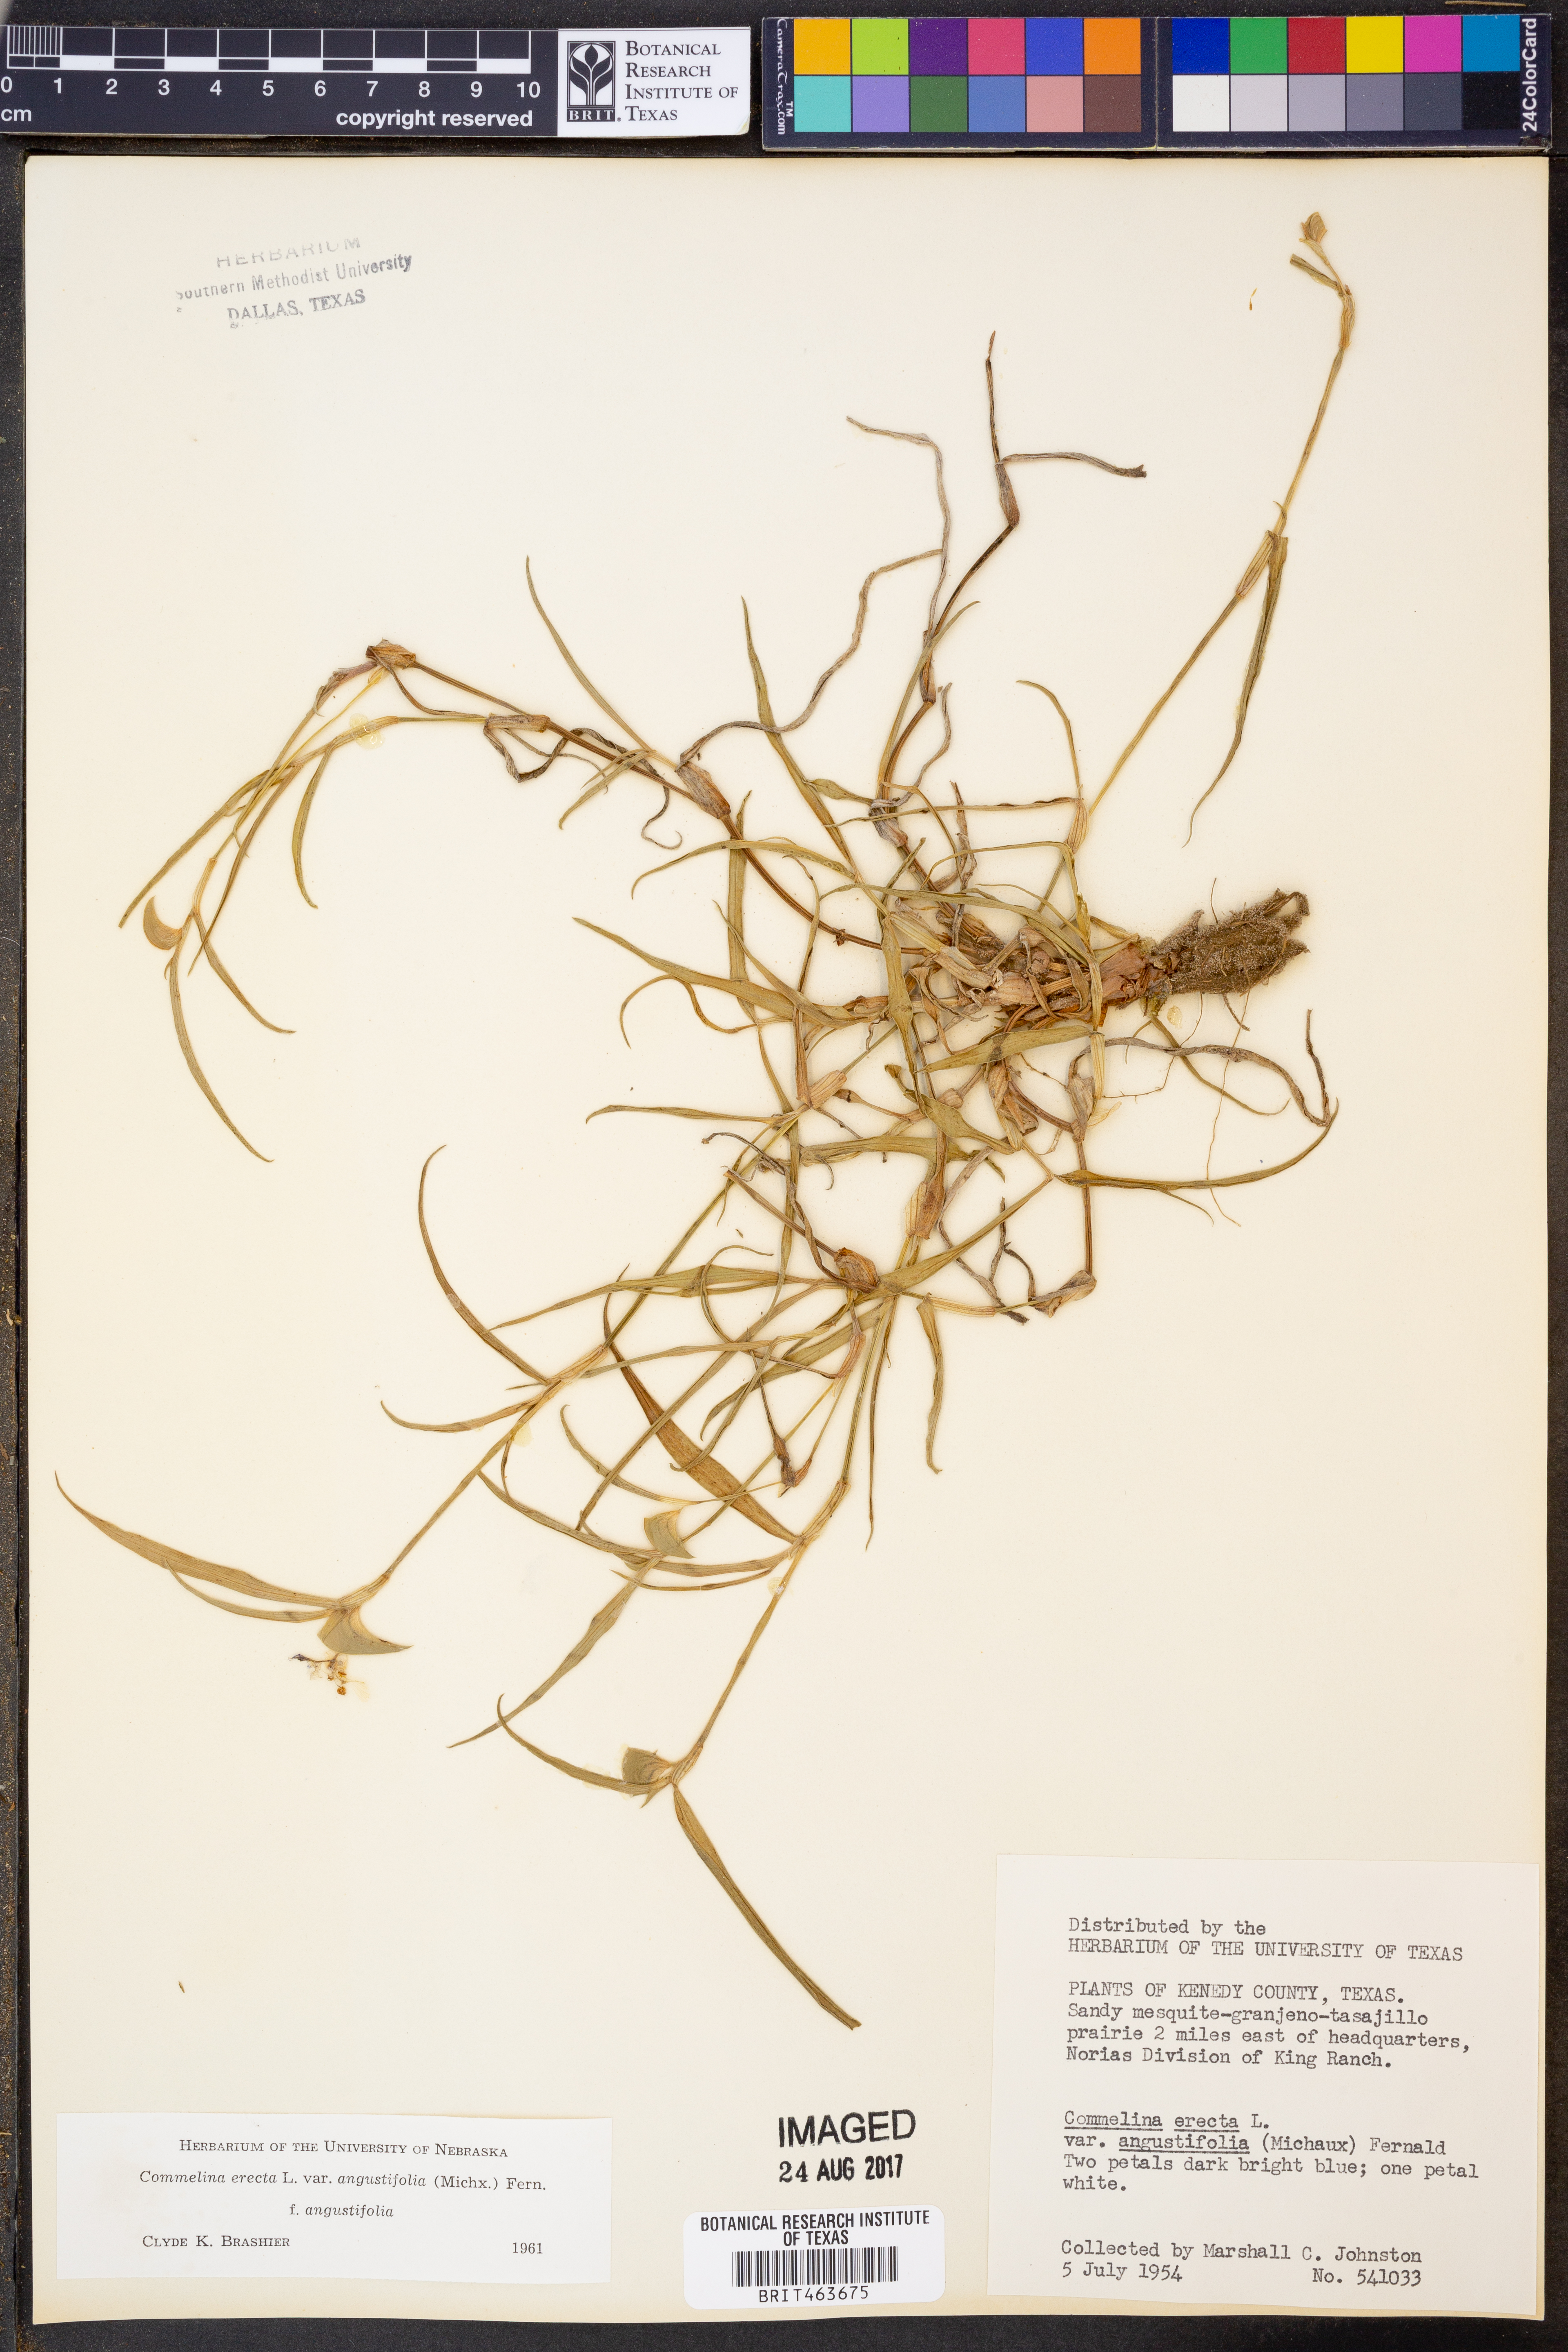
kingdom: Plantae
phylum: Tracheophyta
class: Liliopsida
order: Commelinales
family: Commelinaceae
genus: Commelina
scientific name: Commelina erecta
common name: Blousel blommetjie
